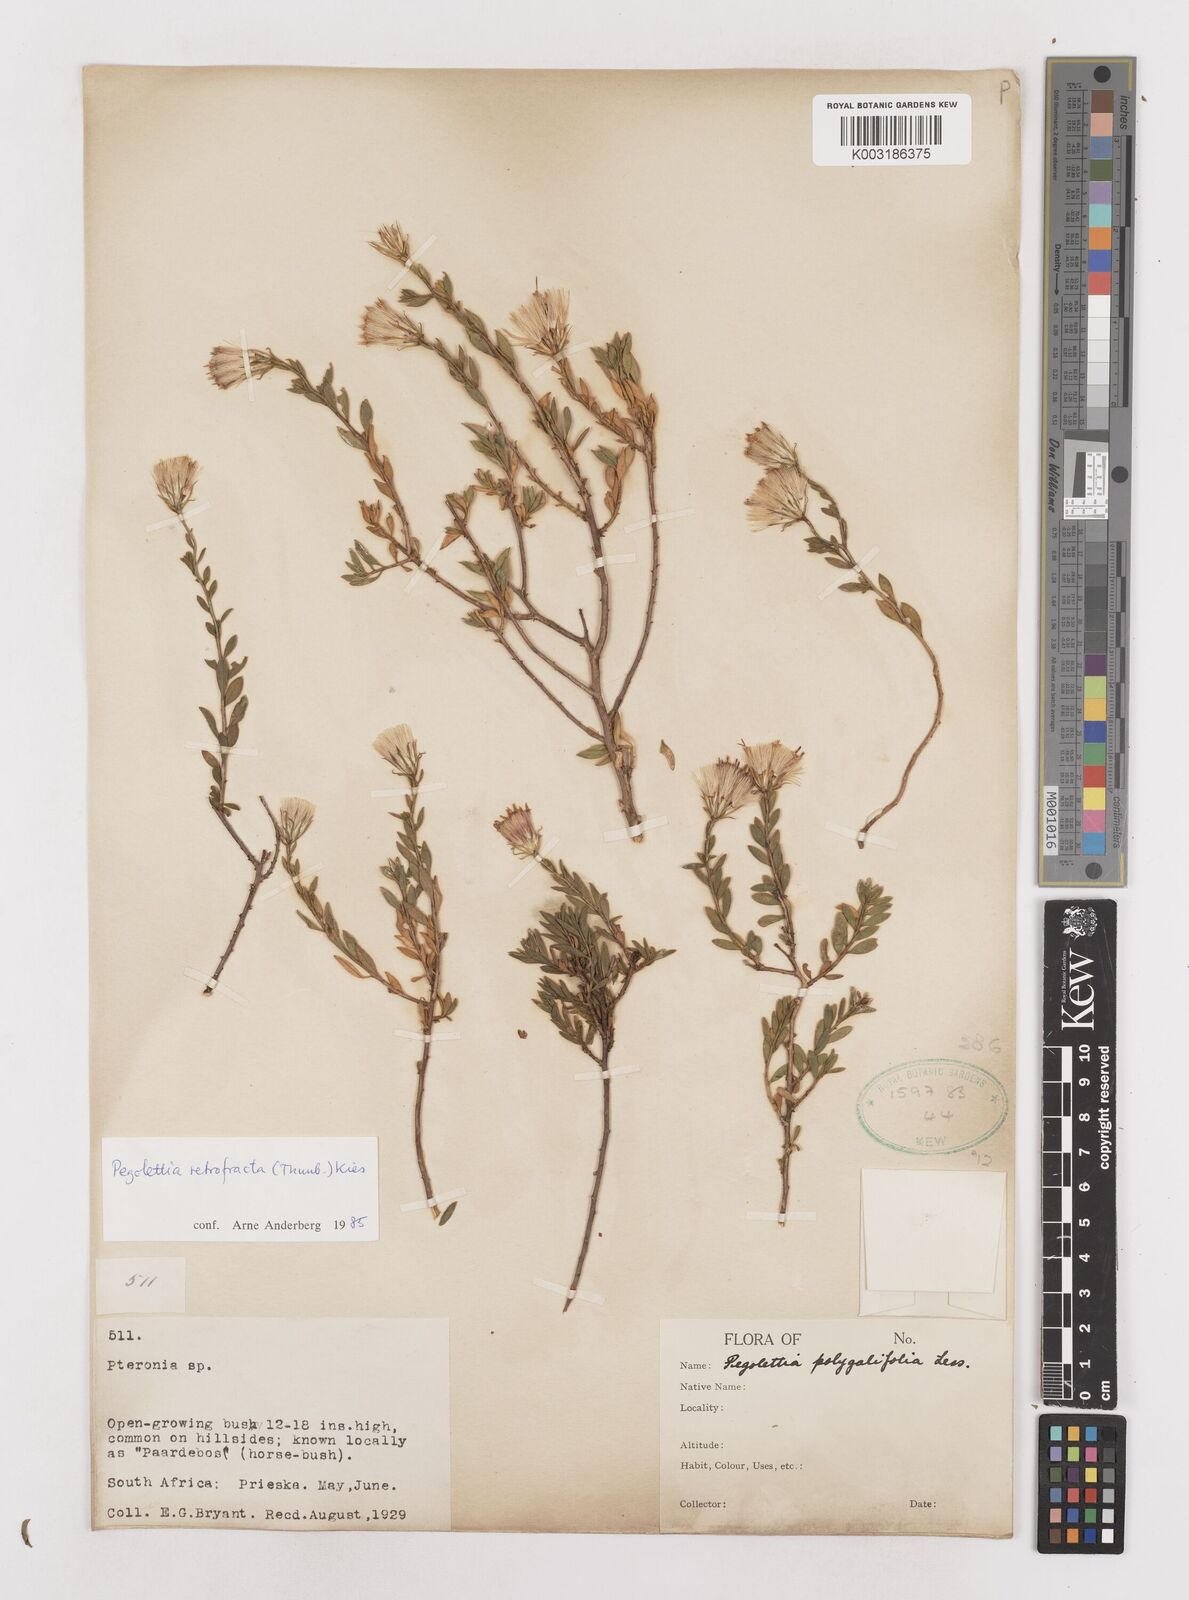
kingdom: Plantae
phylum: Tracheophyta
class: Magnoliopsida
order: Asterales
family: Asteraceae
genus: Pegolettia
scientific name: Pegolettia retrofracta
